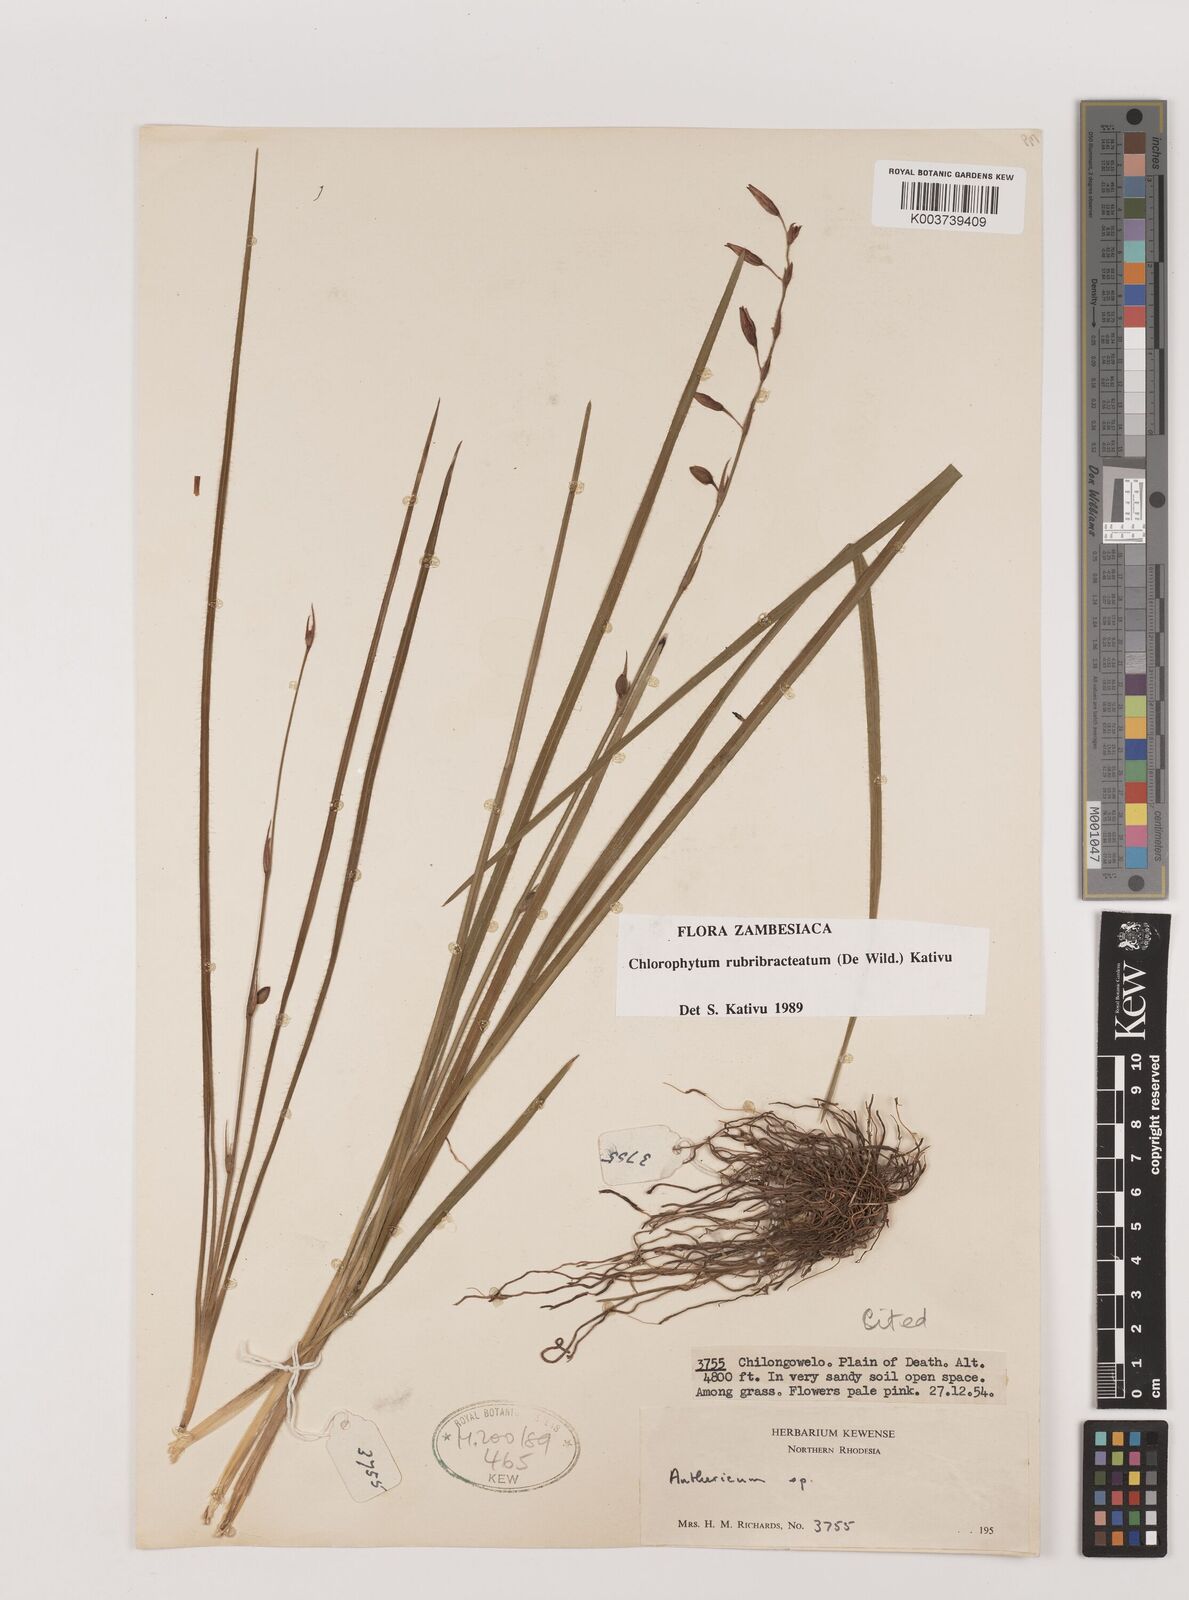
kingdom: Plantae
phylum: Tracheophyta
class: Liliopsida
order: Asparagales
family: Asparagaceae
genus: Chlorophytum
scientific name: Chlorophytum rubribracteatum
